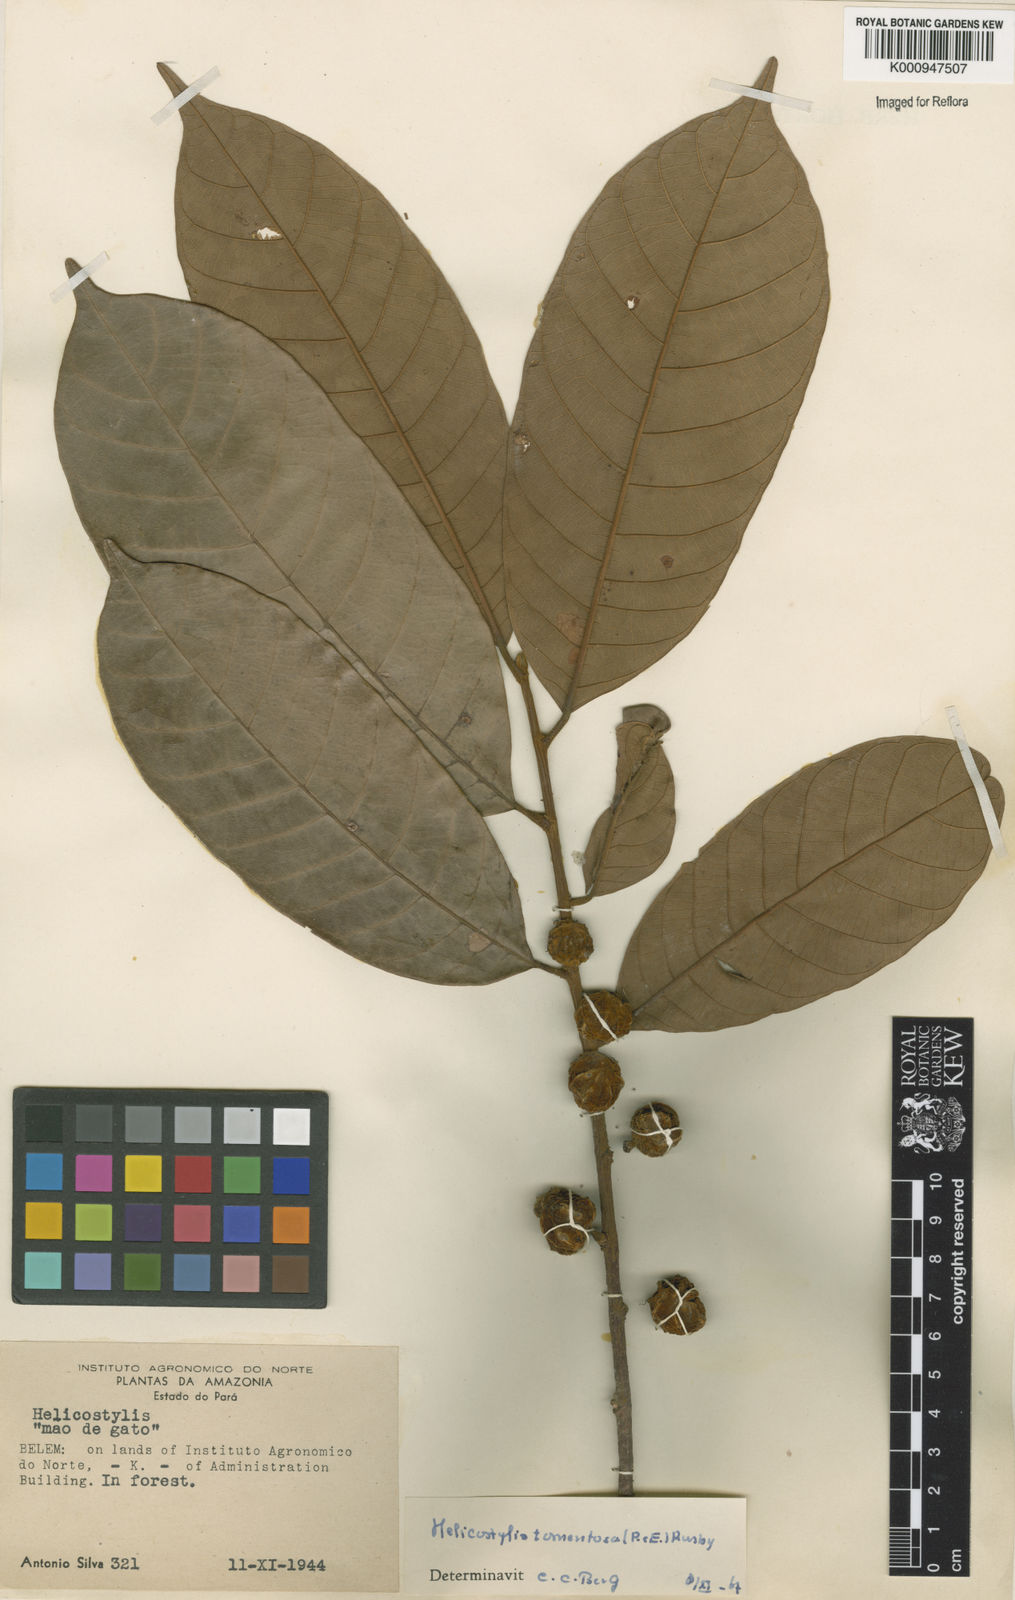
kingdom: Plantae
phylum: Tracheophyta
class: Magnoliopsida
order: Rosales
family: Moraceae
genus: Helicostylis
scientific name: Helicostylis
